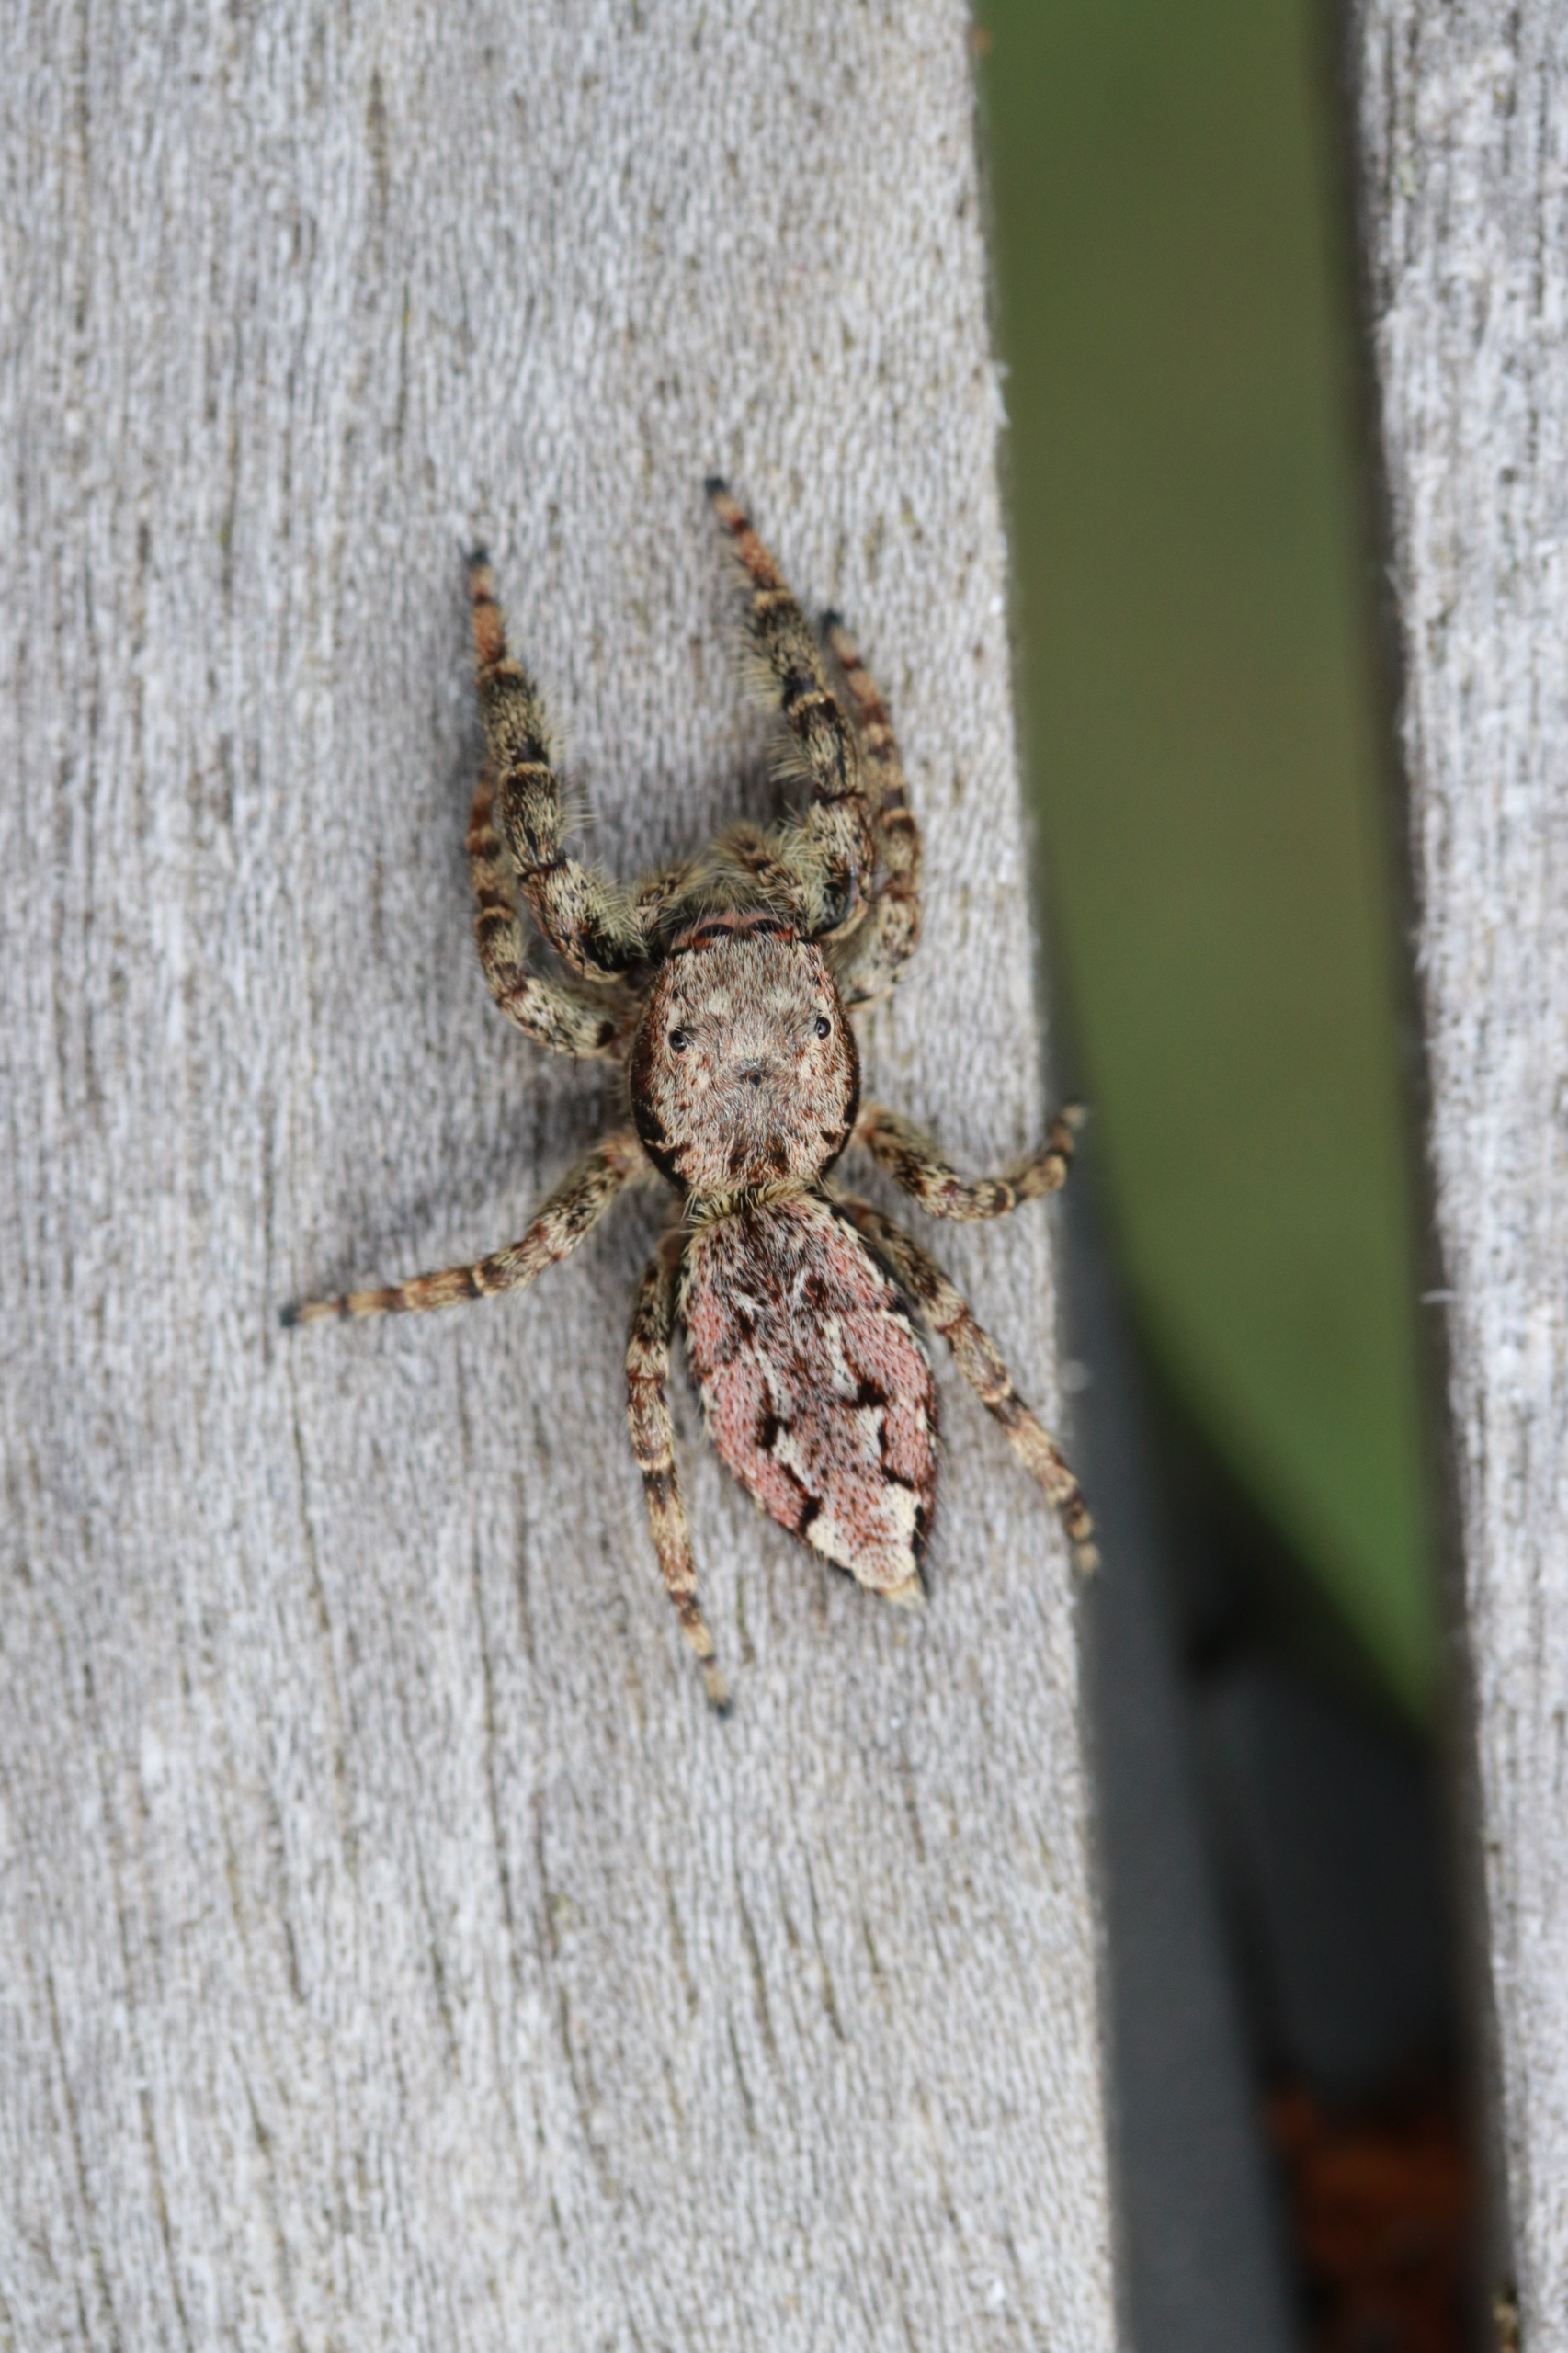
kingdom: Animalia
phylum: Arthropoda
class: Arachnida
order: Araneae
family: Salticidae
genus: Marpissa
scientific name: Marpissa muscosa
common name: Stor springedderkop
